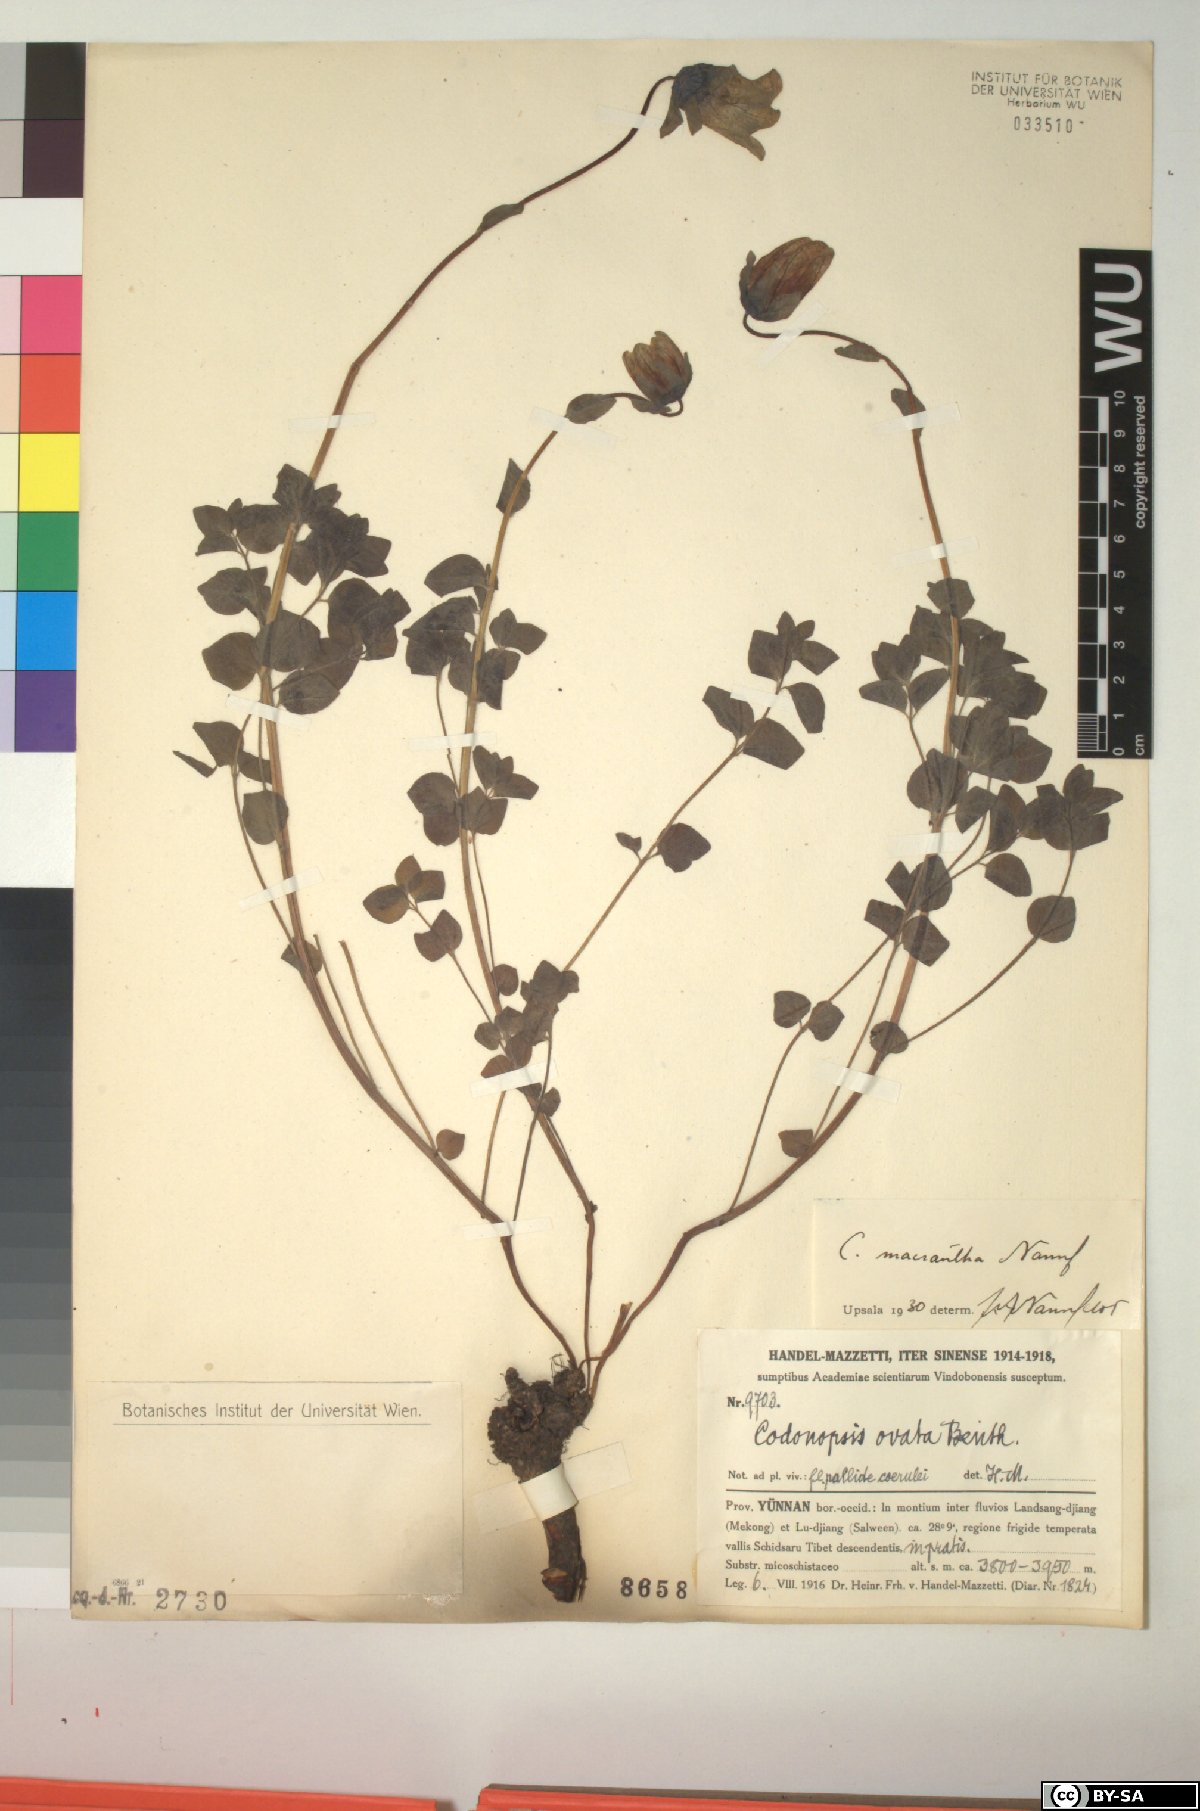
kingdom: Plantae
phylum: Tracheophyta
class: Magnoliopsida
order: Asterales
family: Campanulaceae
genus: Codonopsis
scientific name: Codonopsis foetens
